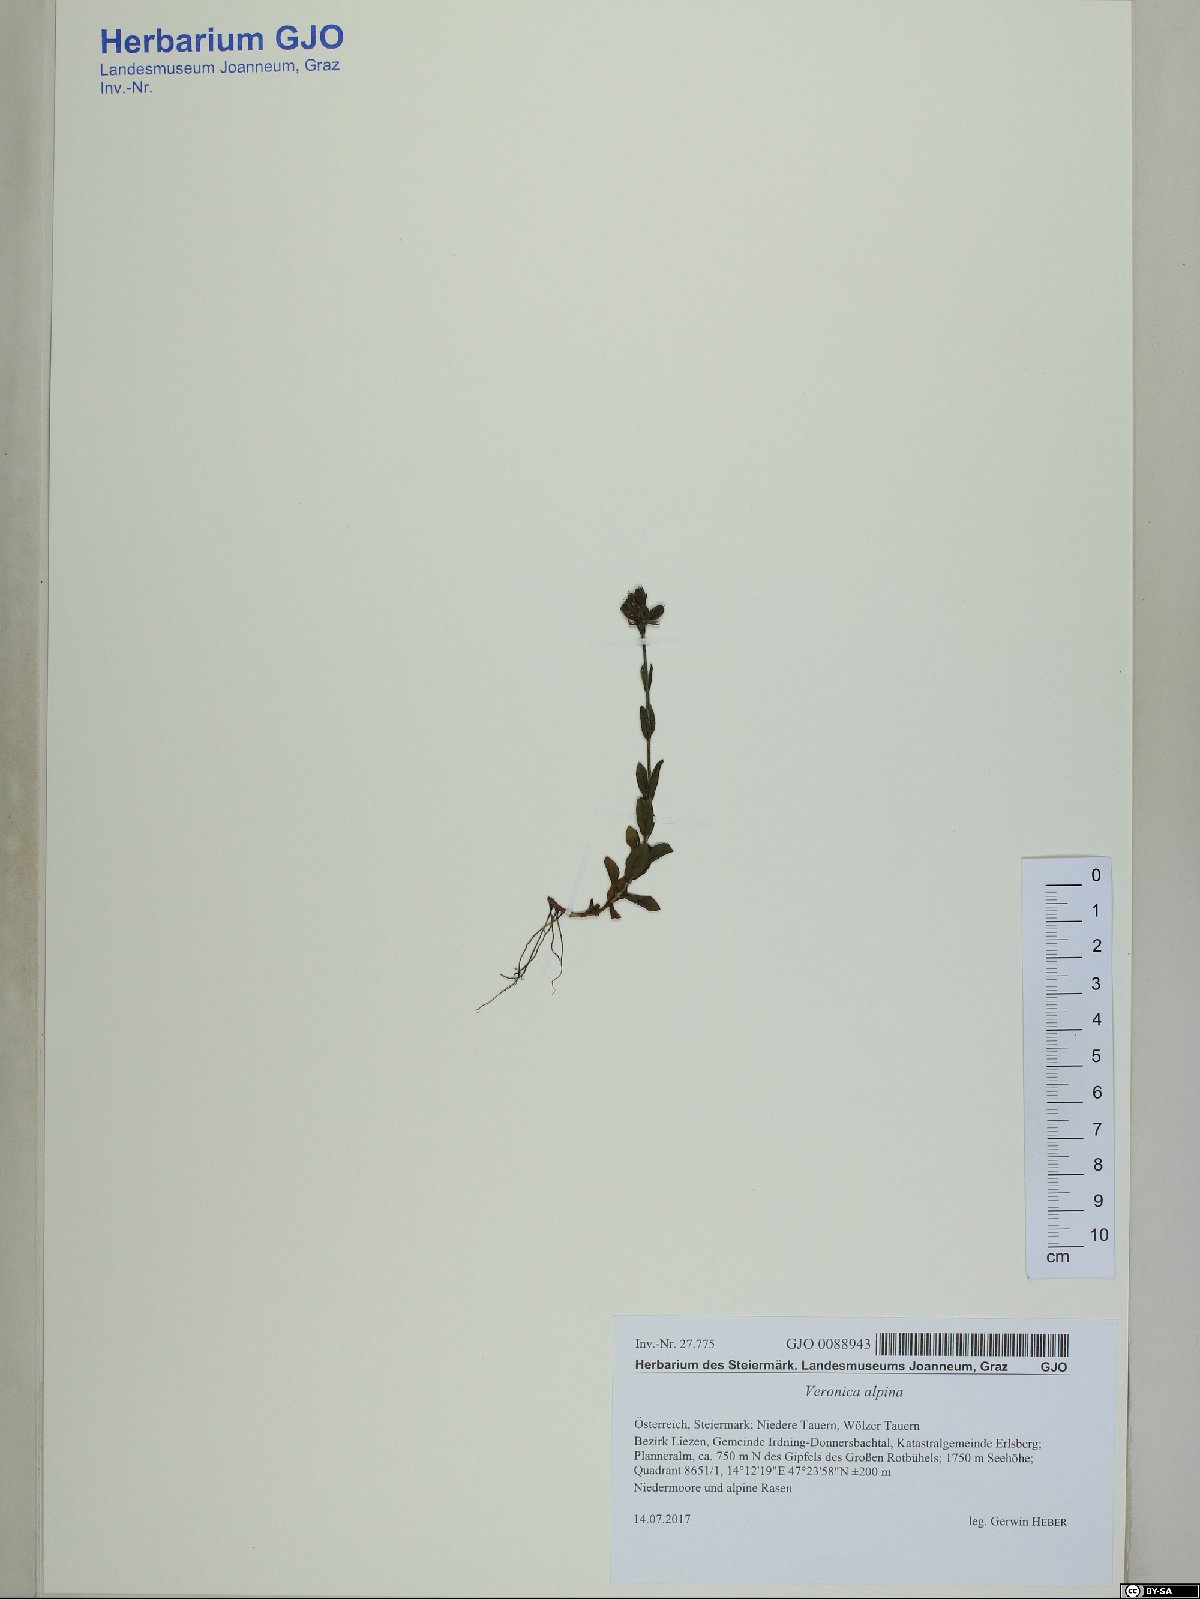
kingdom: Plantae
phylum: Tracheophyta
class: Magnoliopsida
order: Lamiales
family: Plantaginaceae
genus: Veronica
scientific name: Veronica alpina
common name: Alpine speedwell
